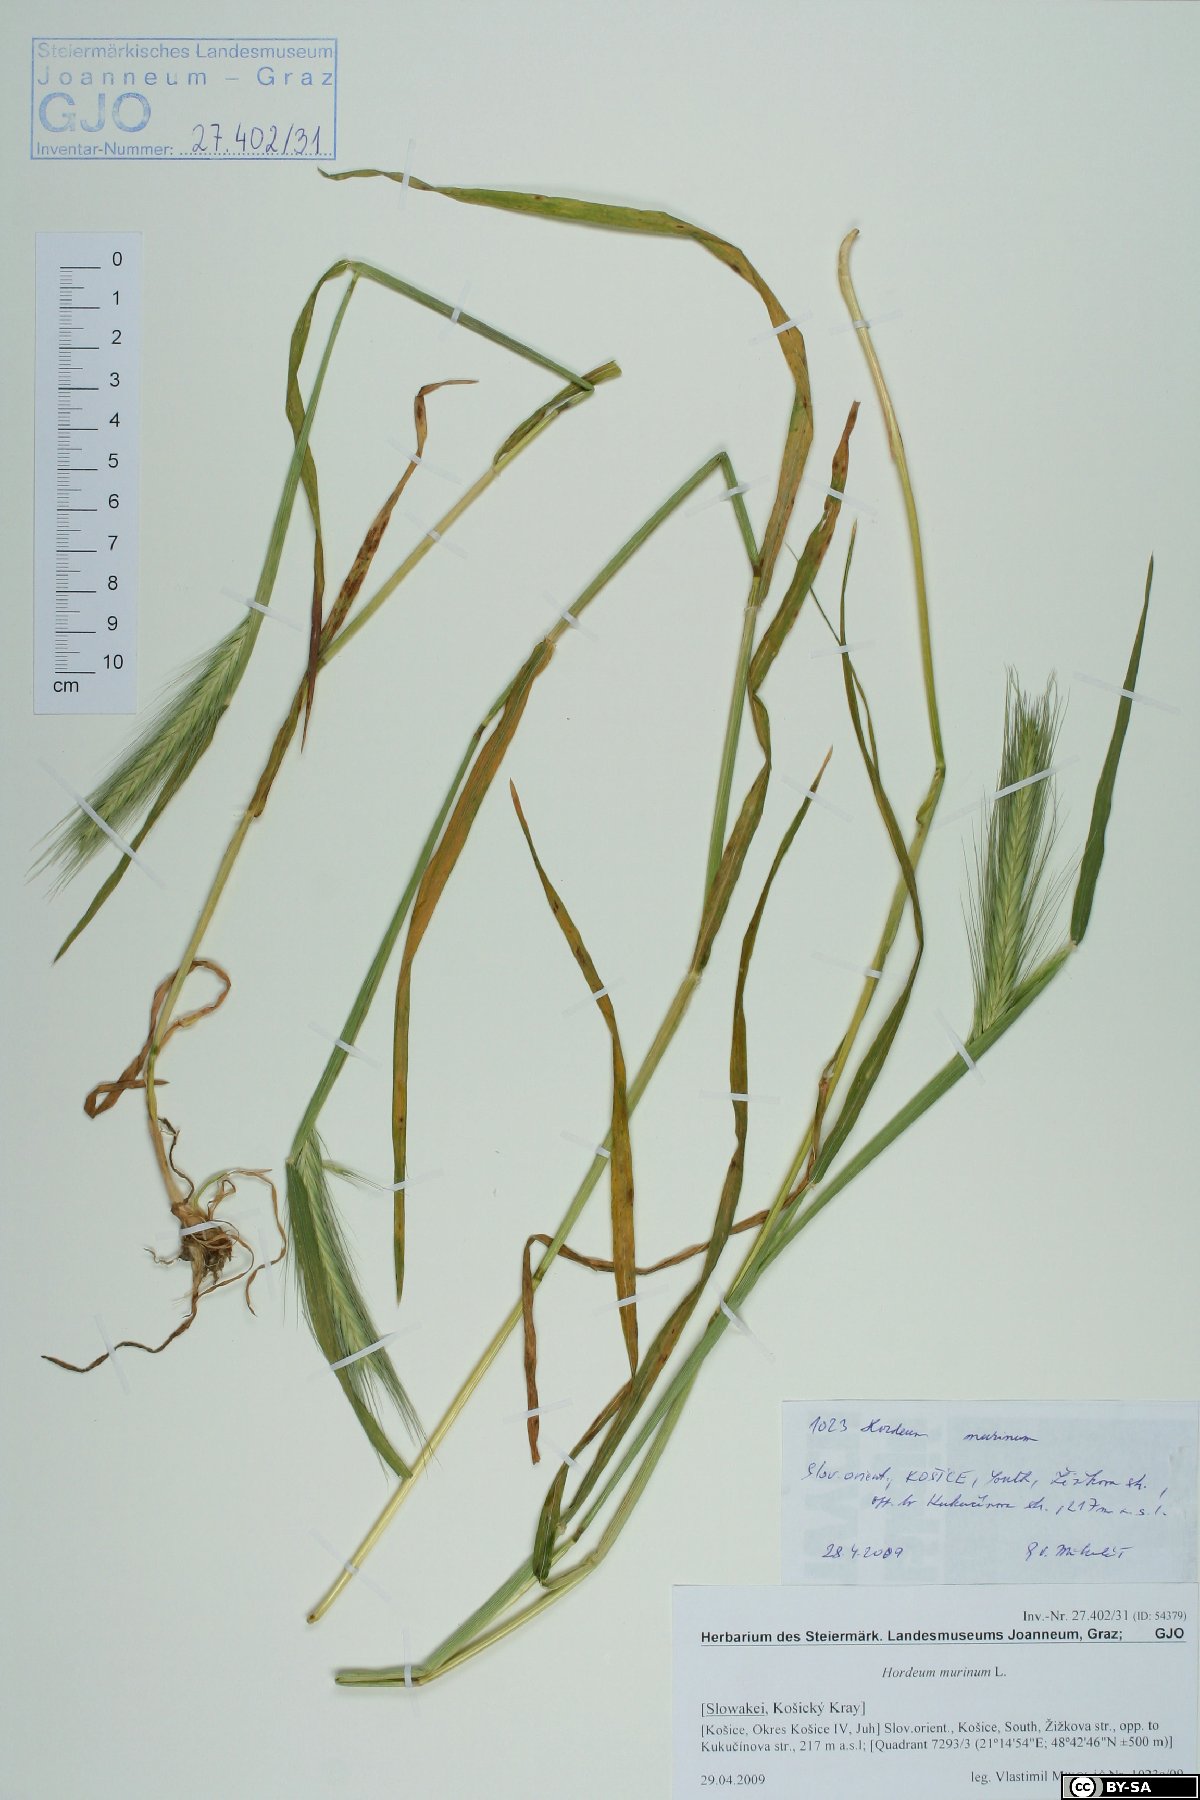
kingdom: Plantae
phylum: Tracheophyta
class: Liliopsida
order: Poales
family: Poaceae
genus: Hordeum
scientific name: Hordeum murinum
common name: Wall barley
